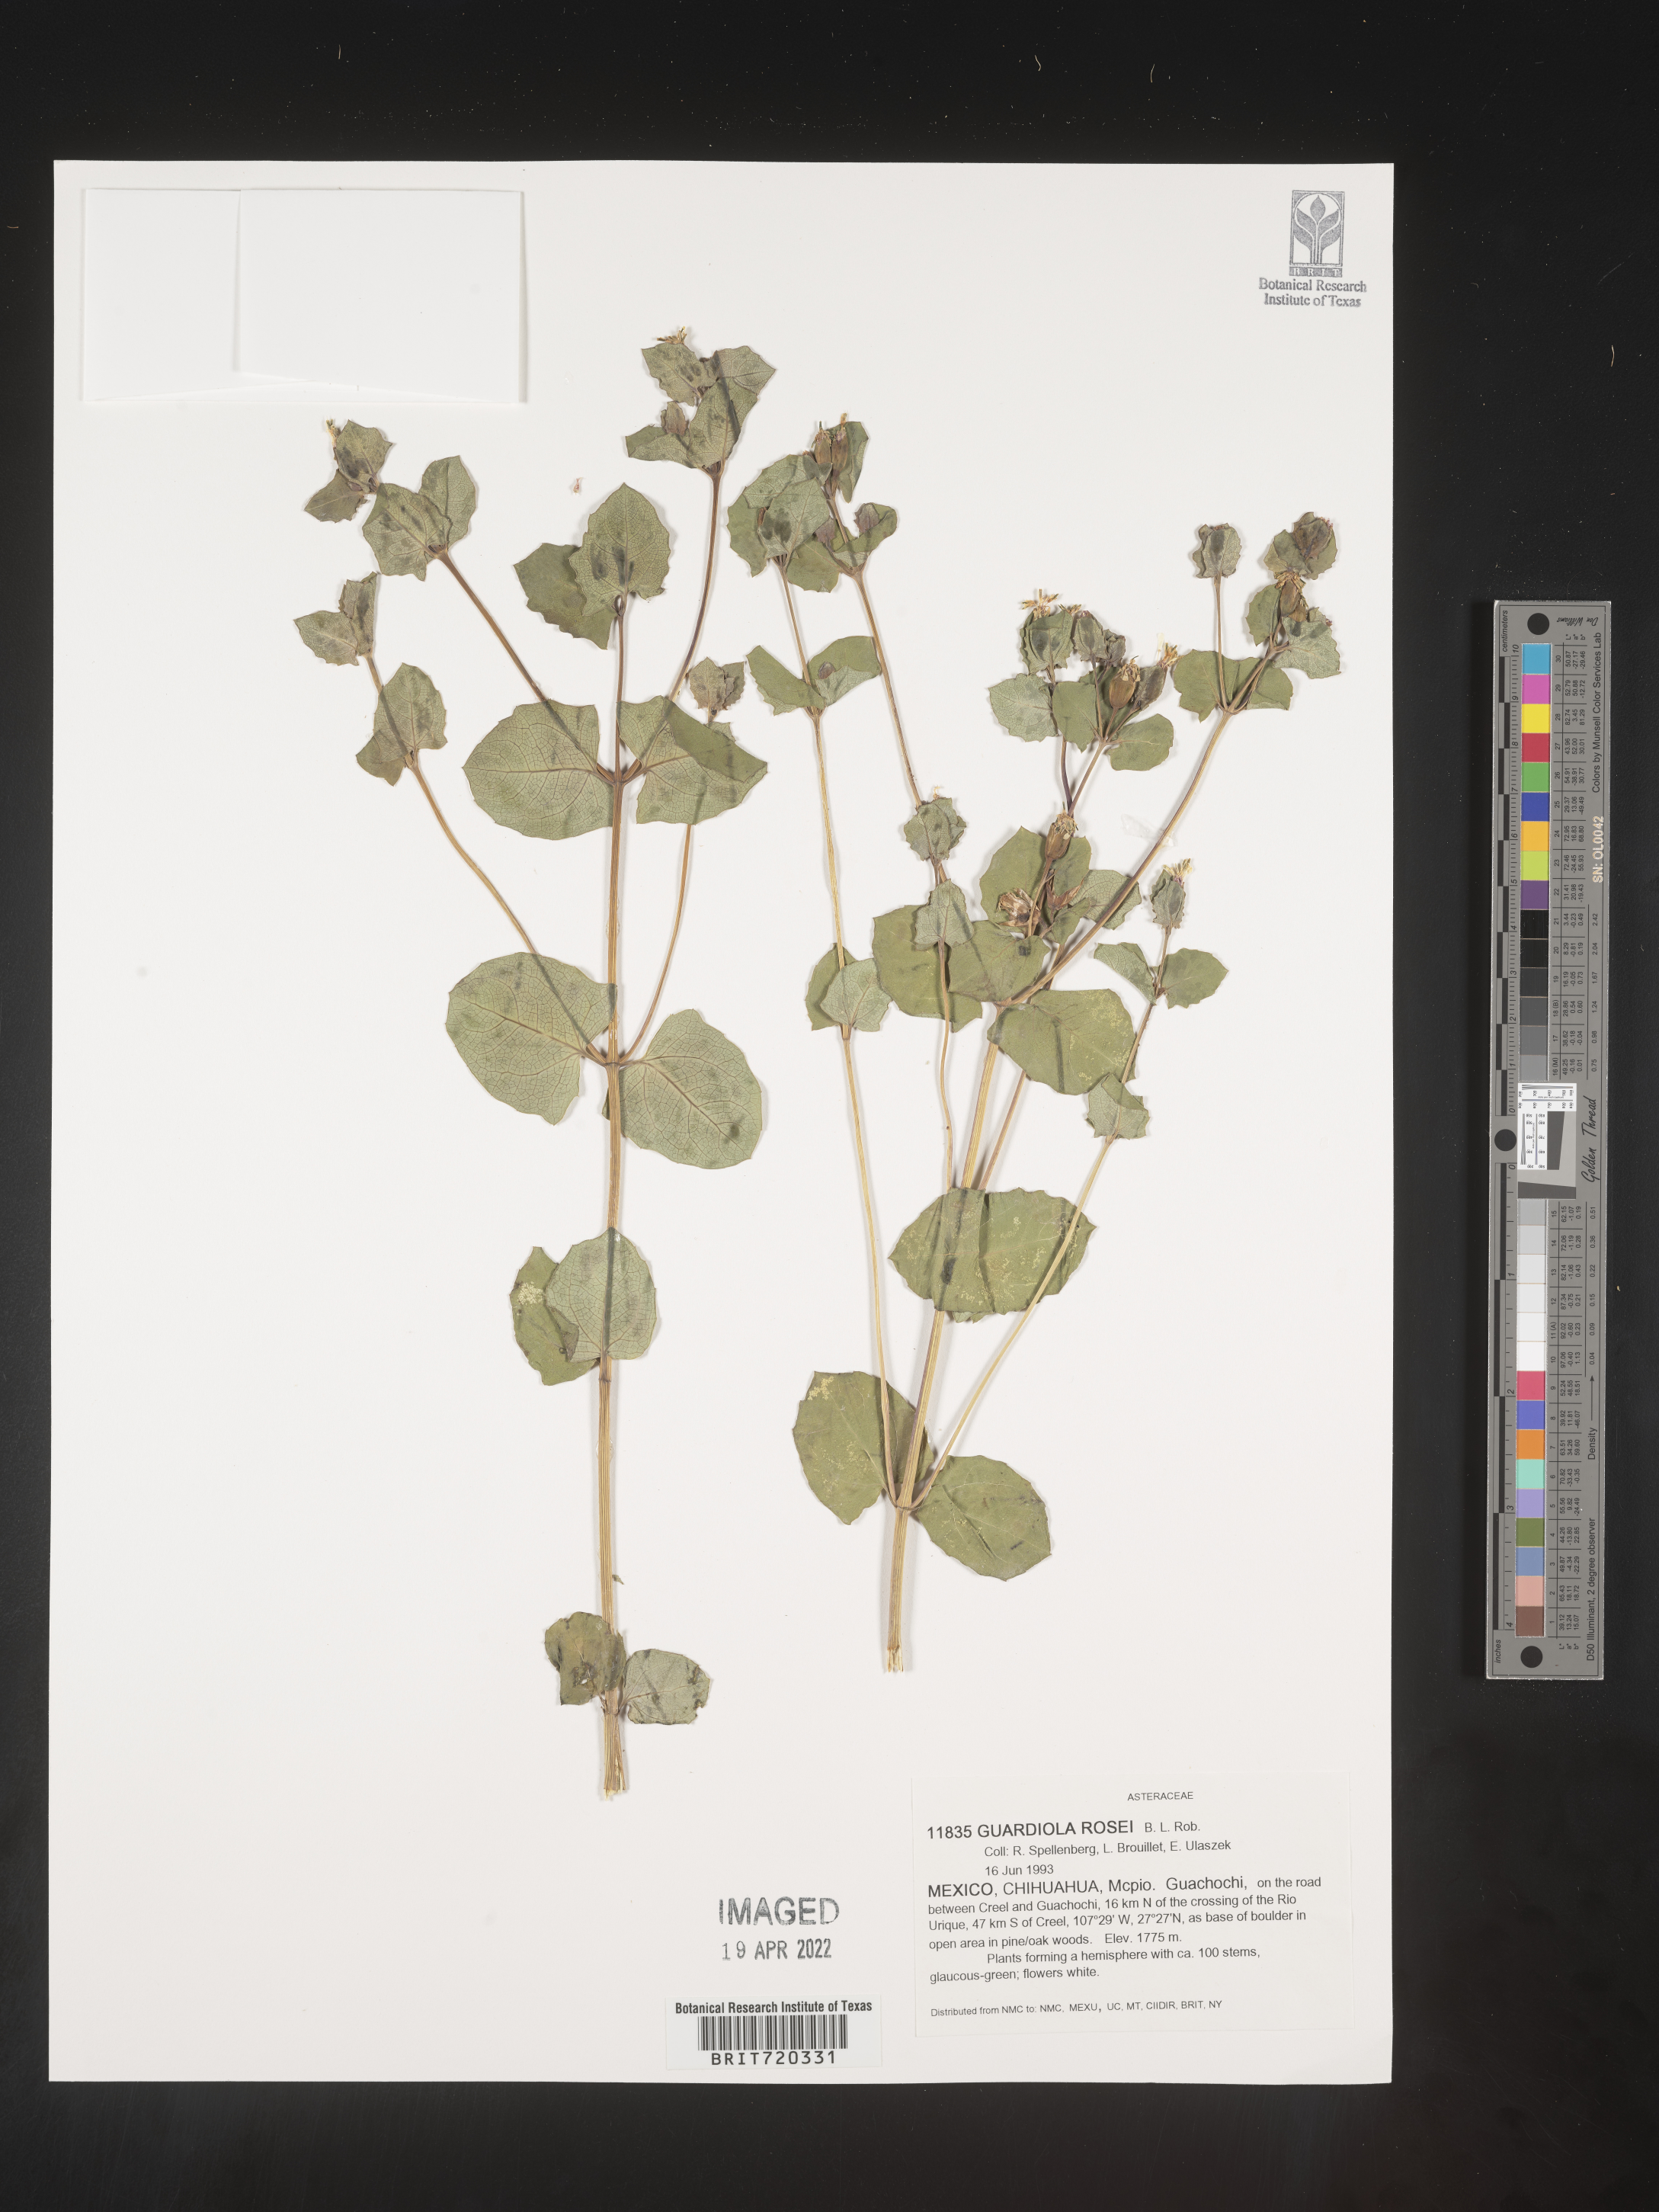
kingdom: Plantae
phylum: Tracheophyta
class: Magnoliopsida
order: Asterales
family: Asteraceae
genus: Guardiola
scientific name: Guardiola
